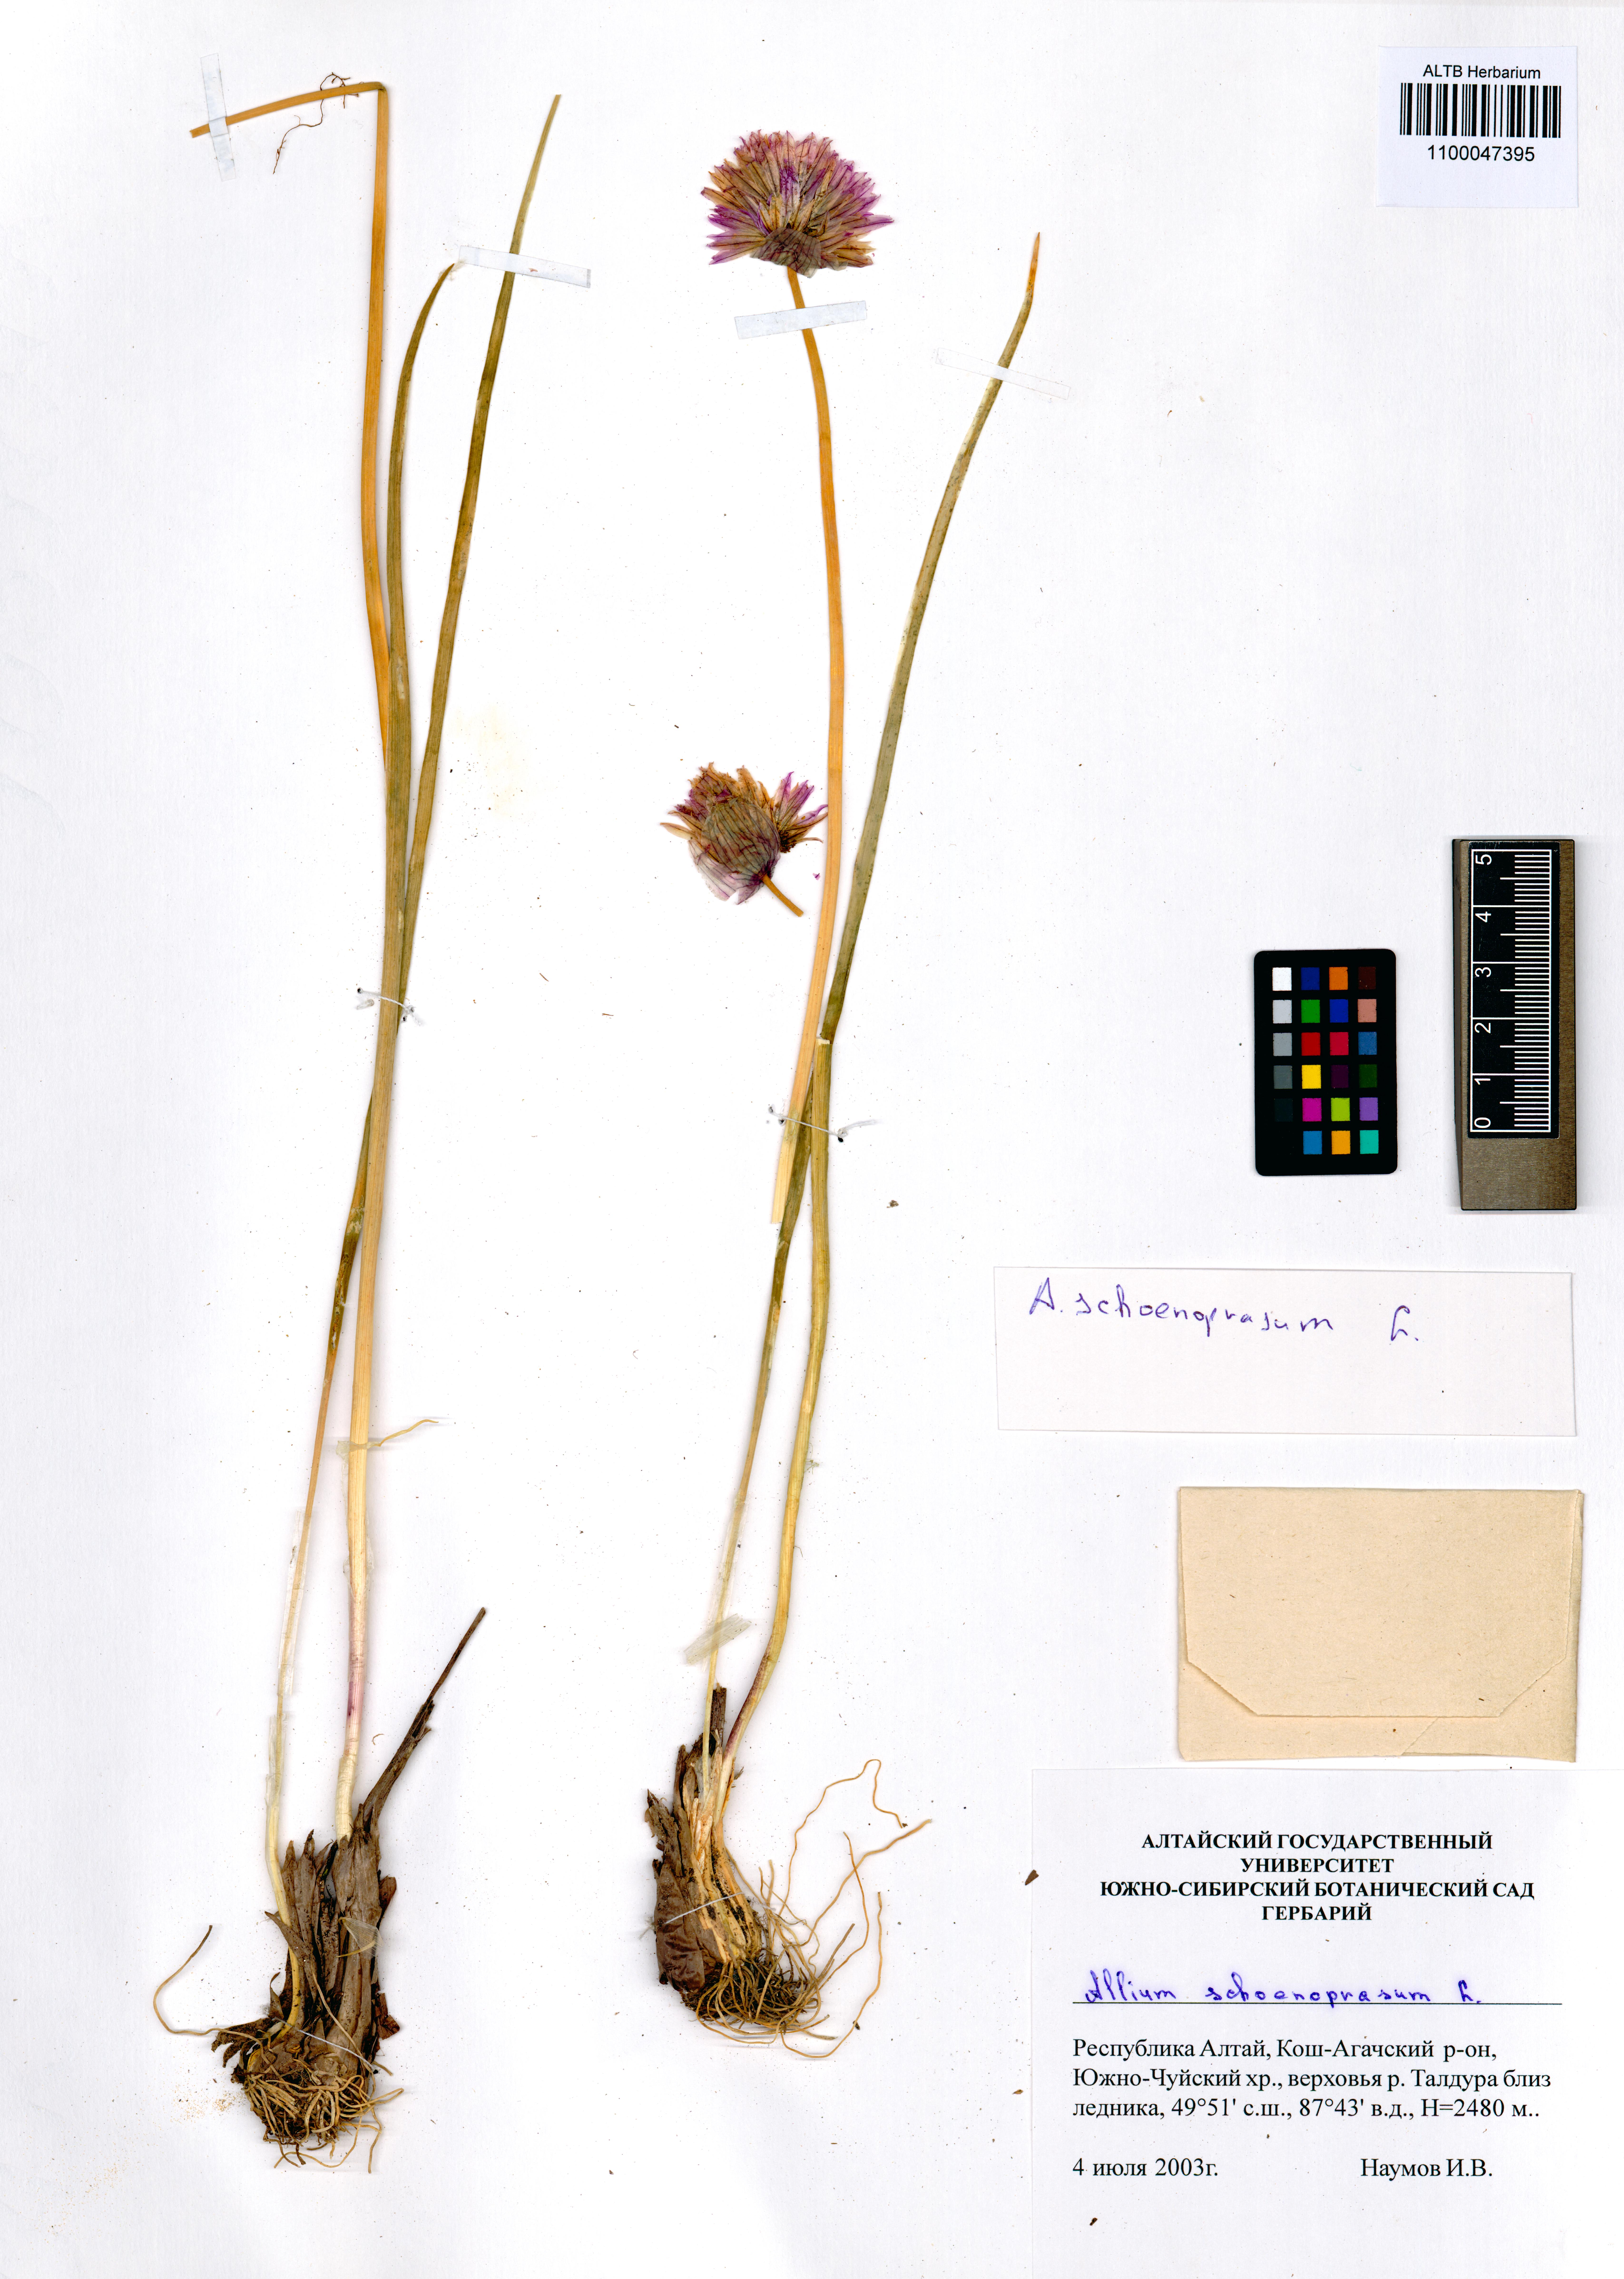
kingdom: Plantae
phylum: Tracheophyta
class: Liliopsida
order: Asparagales
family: Amaryllidaceae
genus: Allium
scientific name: Allium schoenoprasum
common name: Chives
